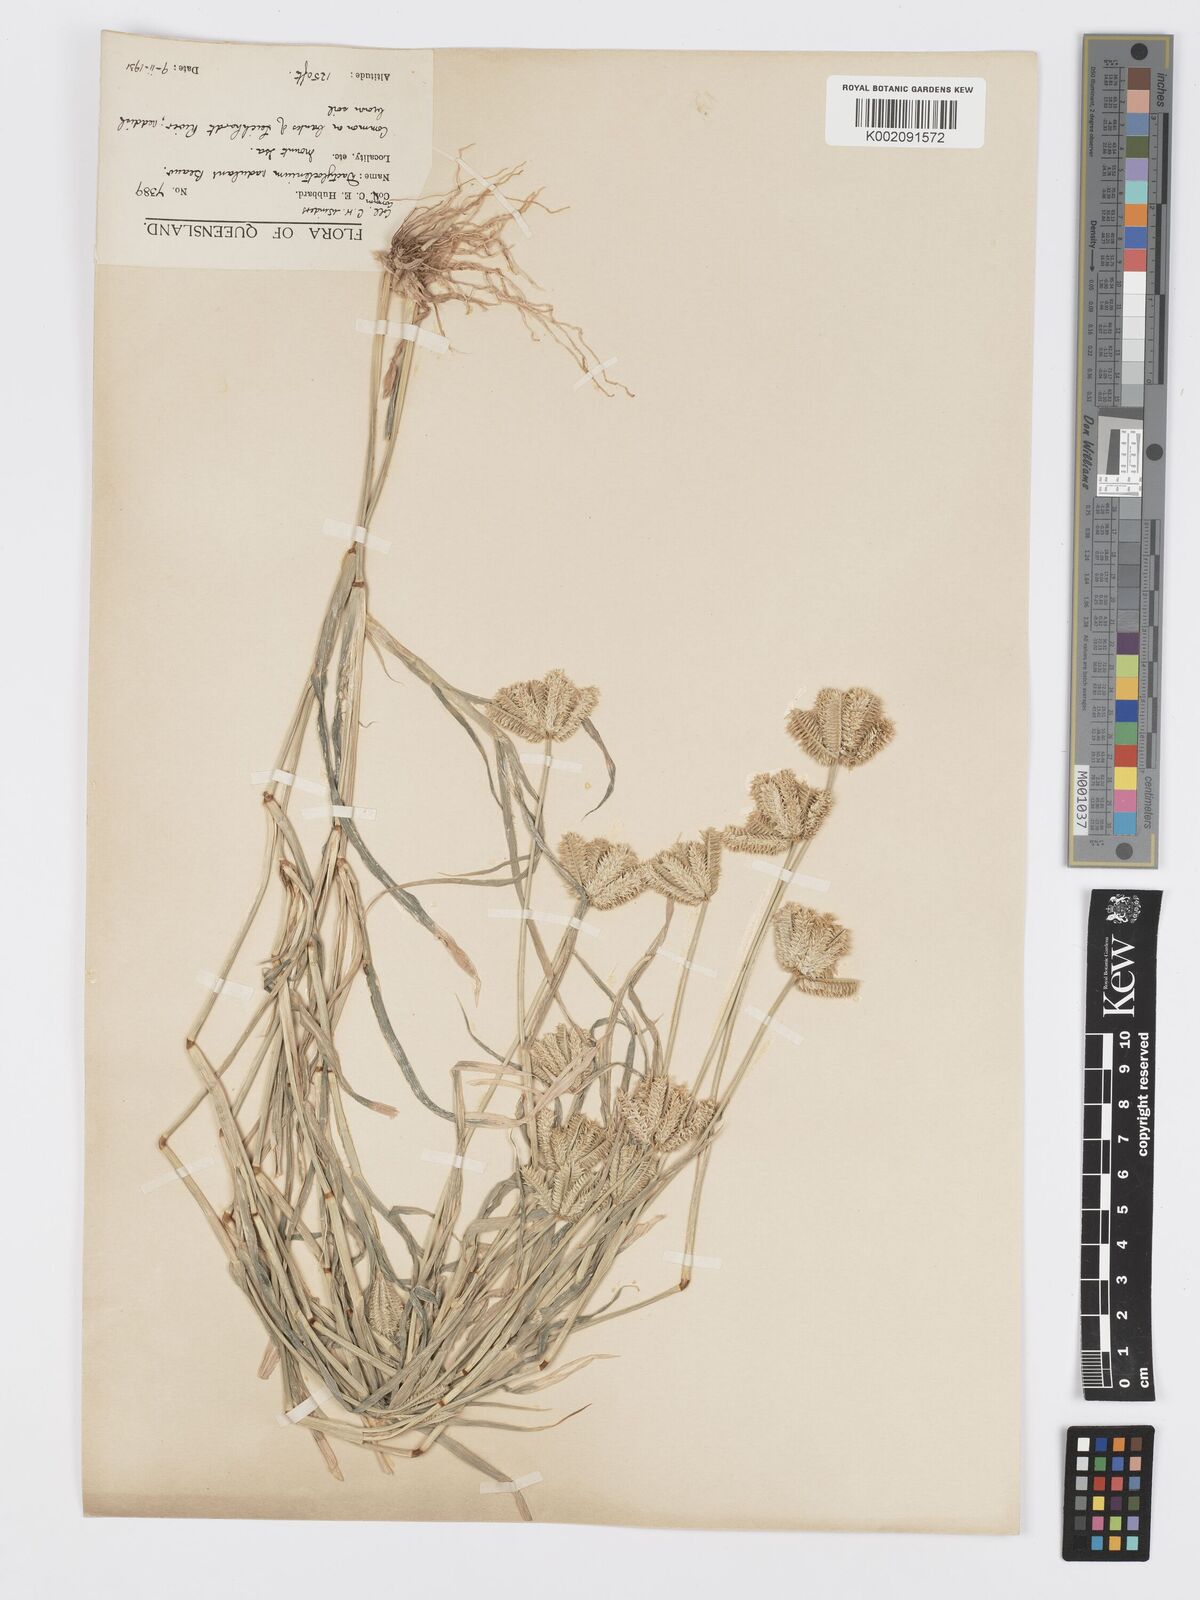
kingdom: Plantae
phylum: Tracheophyta
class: Liliopsida
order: Poales
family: Poaceae
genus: Dactyloctenium
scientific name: Dactyloctenium radulans
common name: Button-grass
